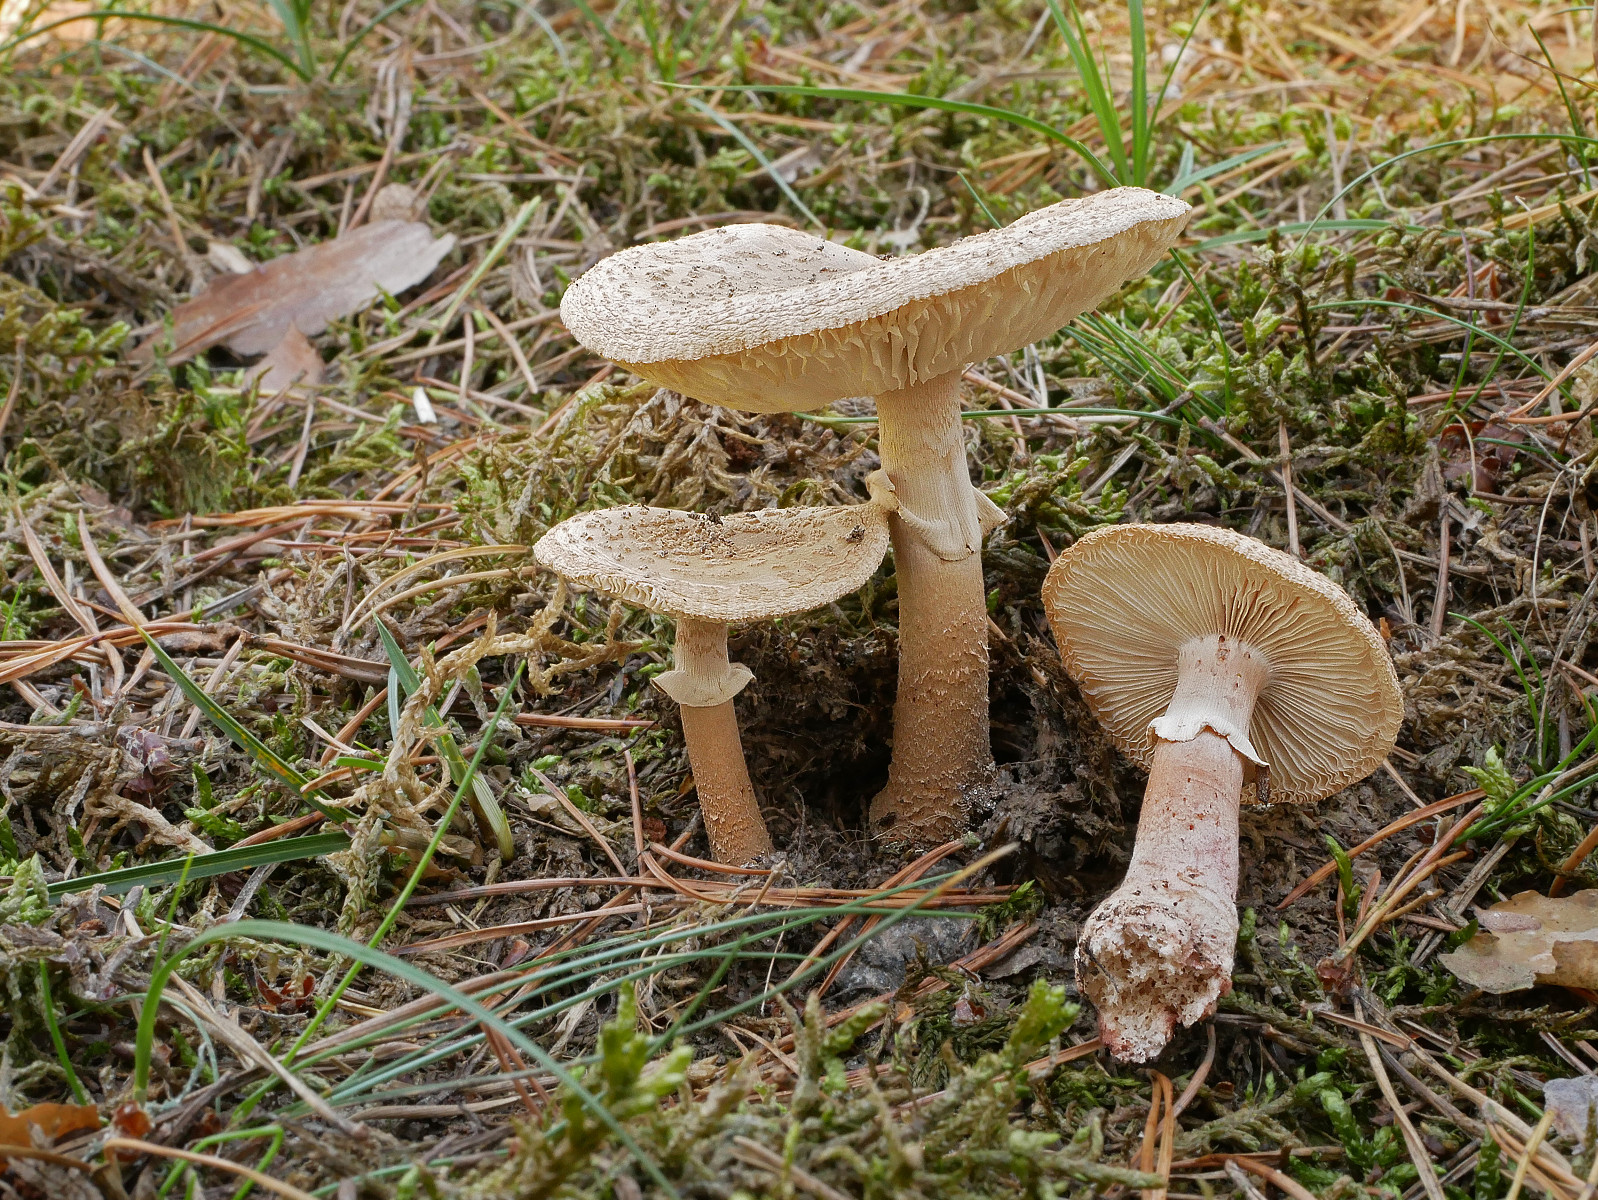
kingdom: Fungi
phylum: Basidiomycota
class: Agaricomycetes
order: Agaricales
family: Amanitaceae
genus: Amanita
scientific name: Amanita rubescens
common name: rødmende fluesvamp
